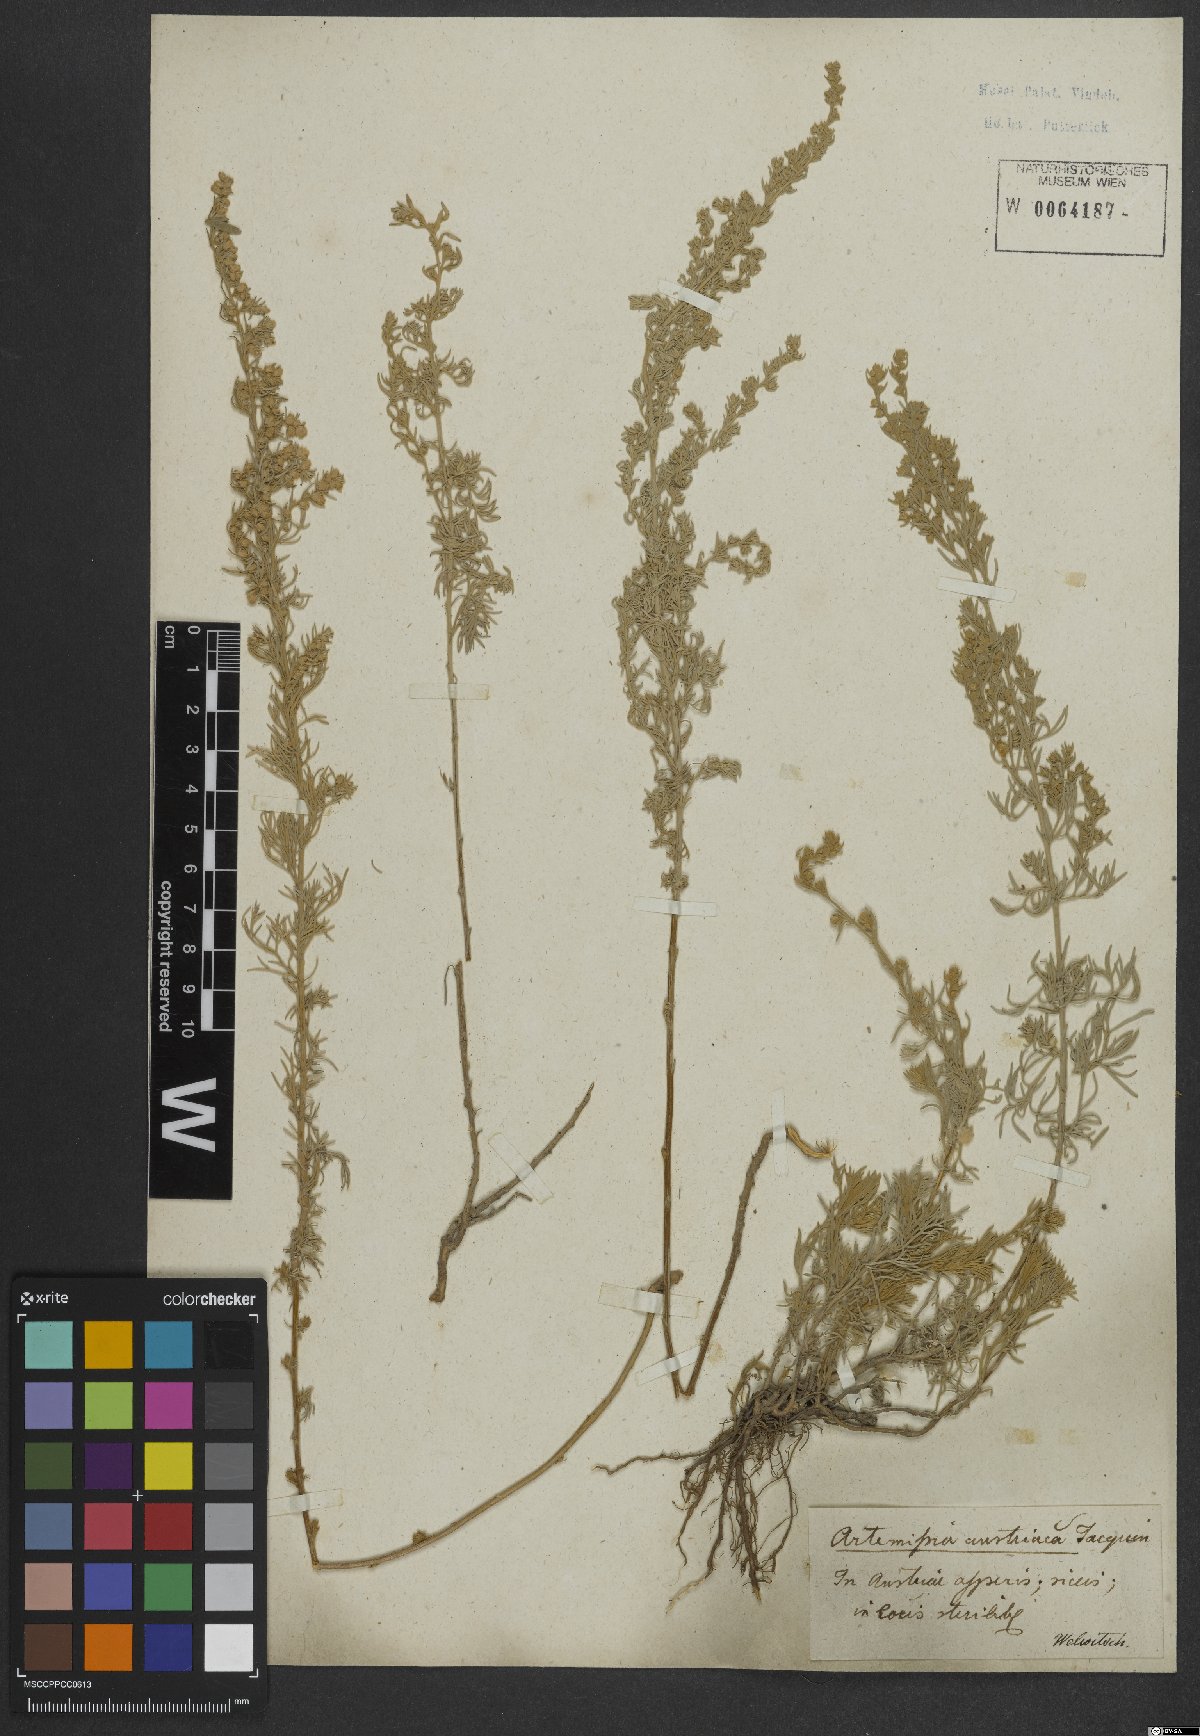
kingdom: Plantae
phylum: Tracheophyta
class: Magnoliopsida
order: Asterales
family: Asteraceae
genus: Artemisia
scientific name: Artemisia austriaca
